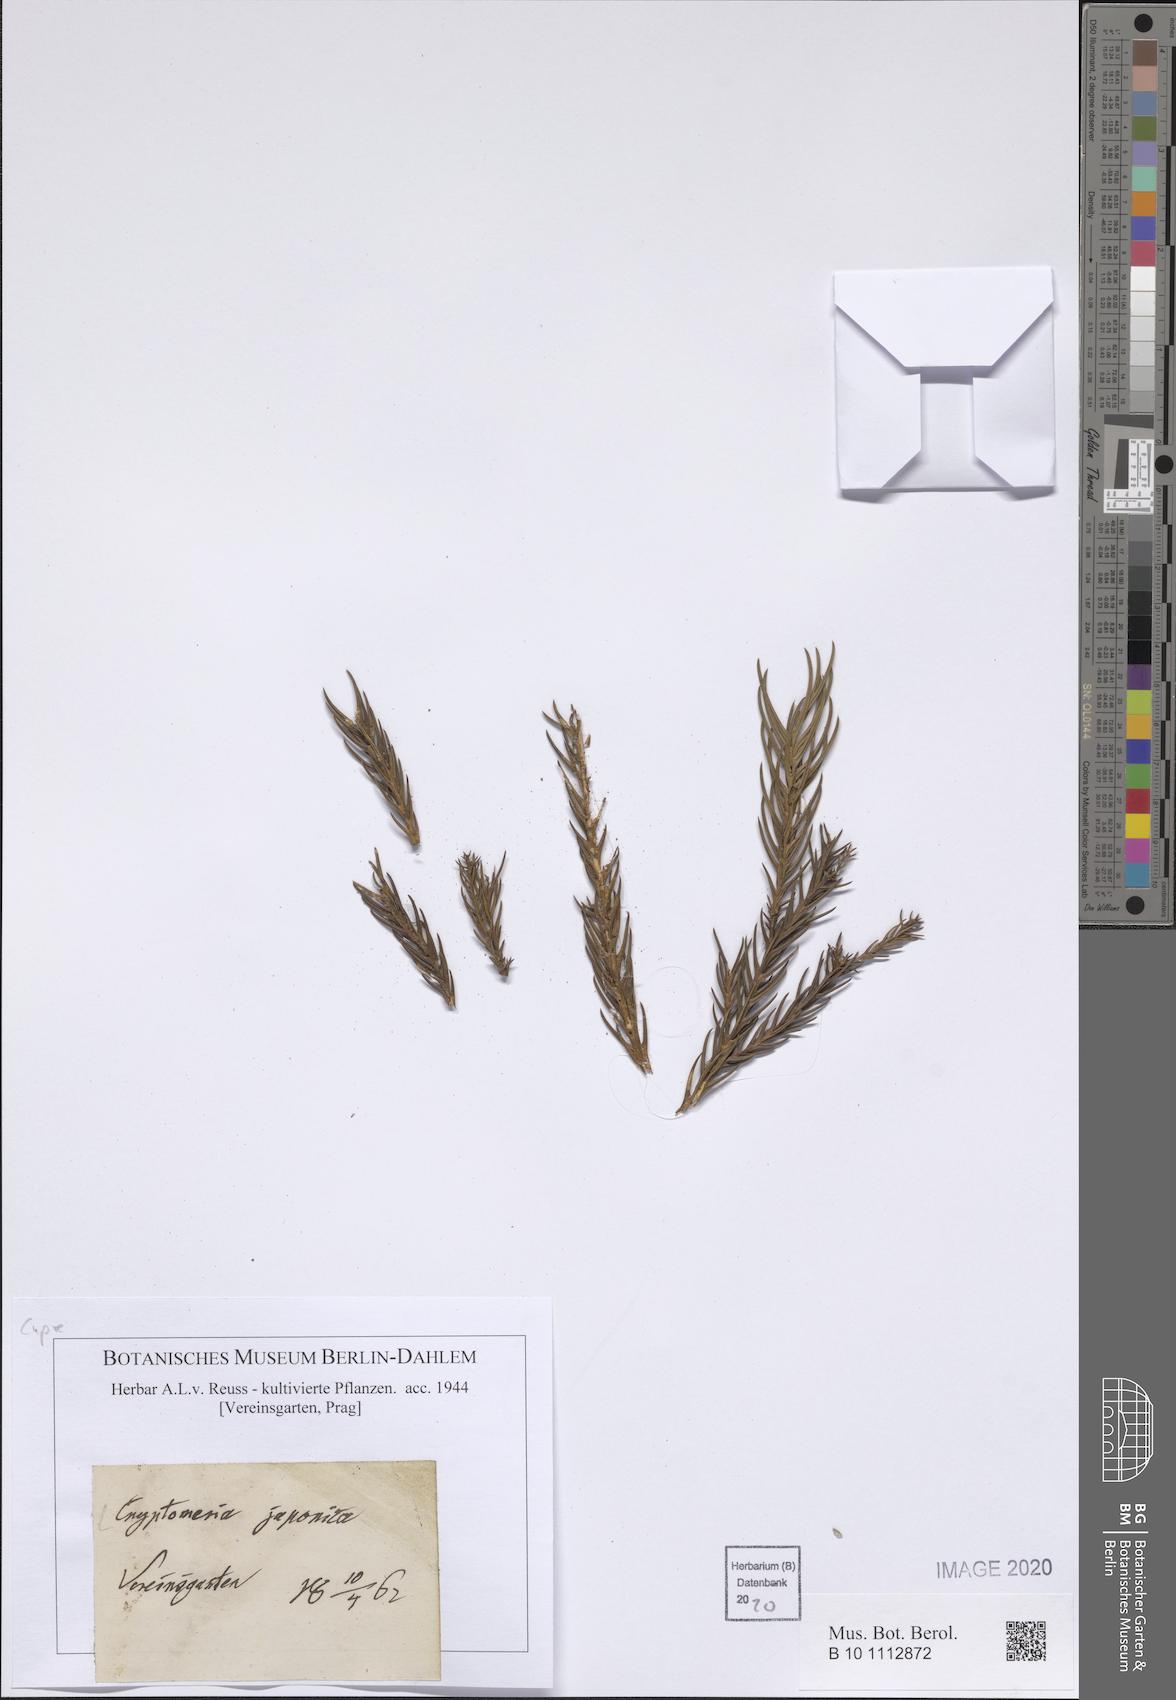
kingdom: Plantae
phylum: Tracheophyta
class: Pinopsida
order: Pinales
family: Cupressaceae
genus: Cryptomeria
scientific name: Cryptomeria japonica
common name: Japanese cedar
